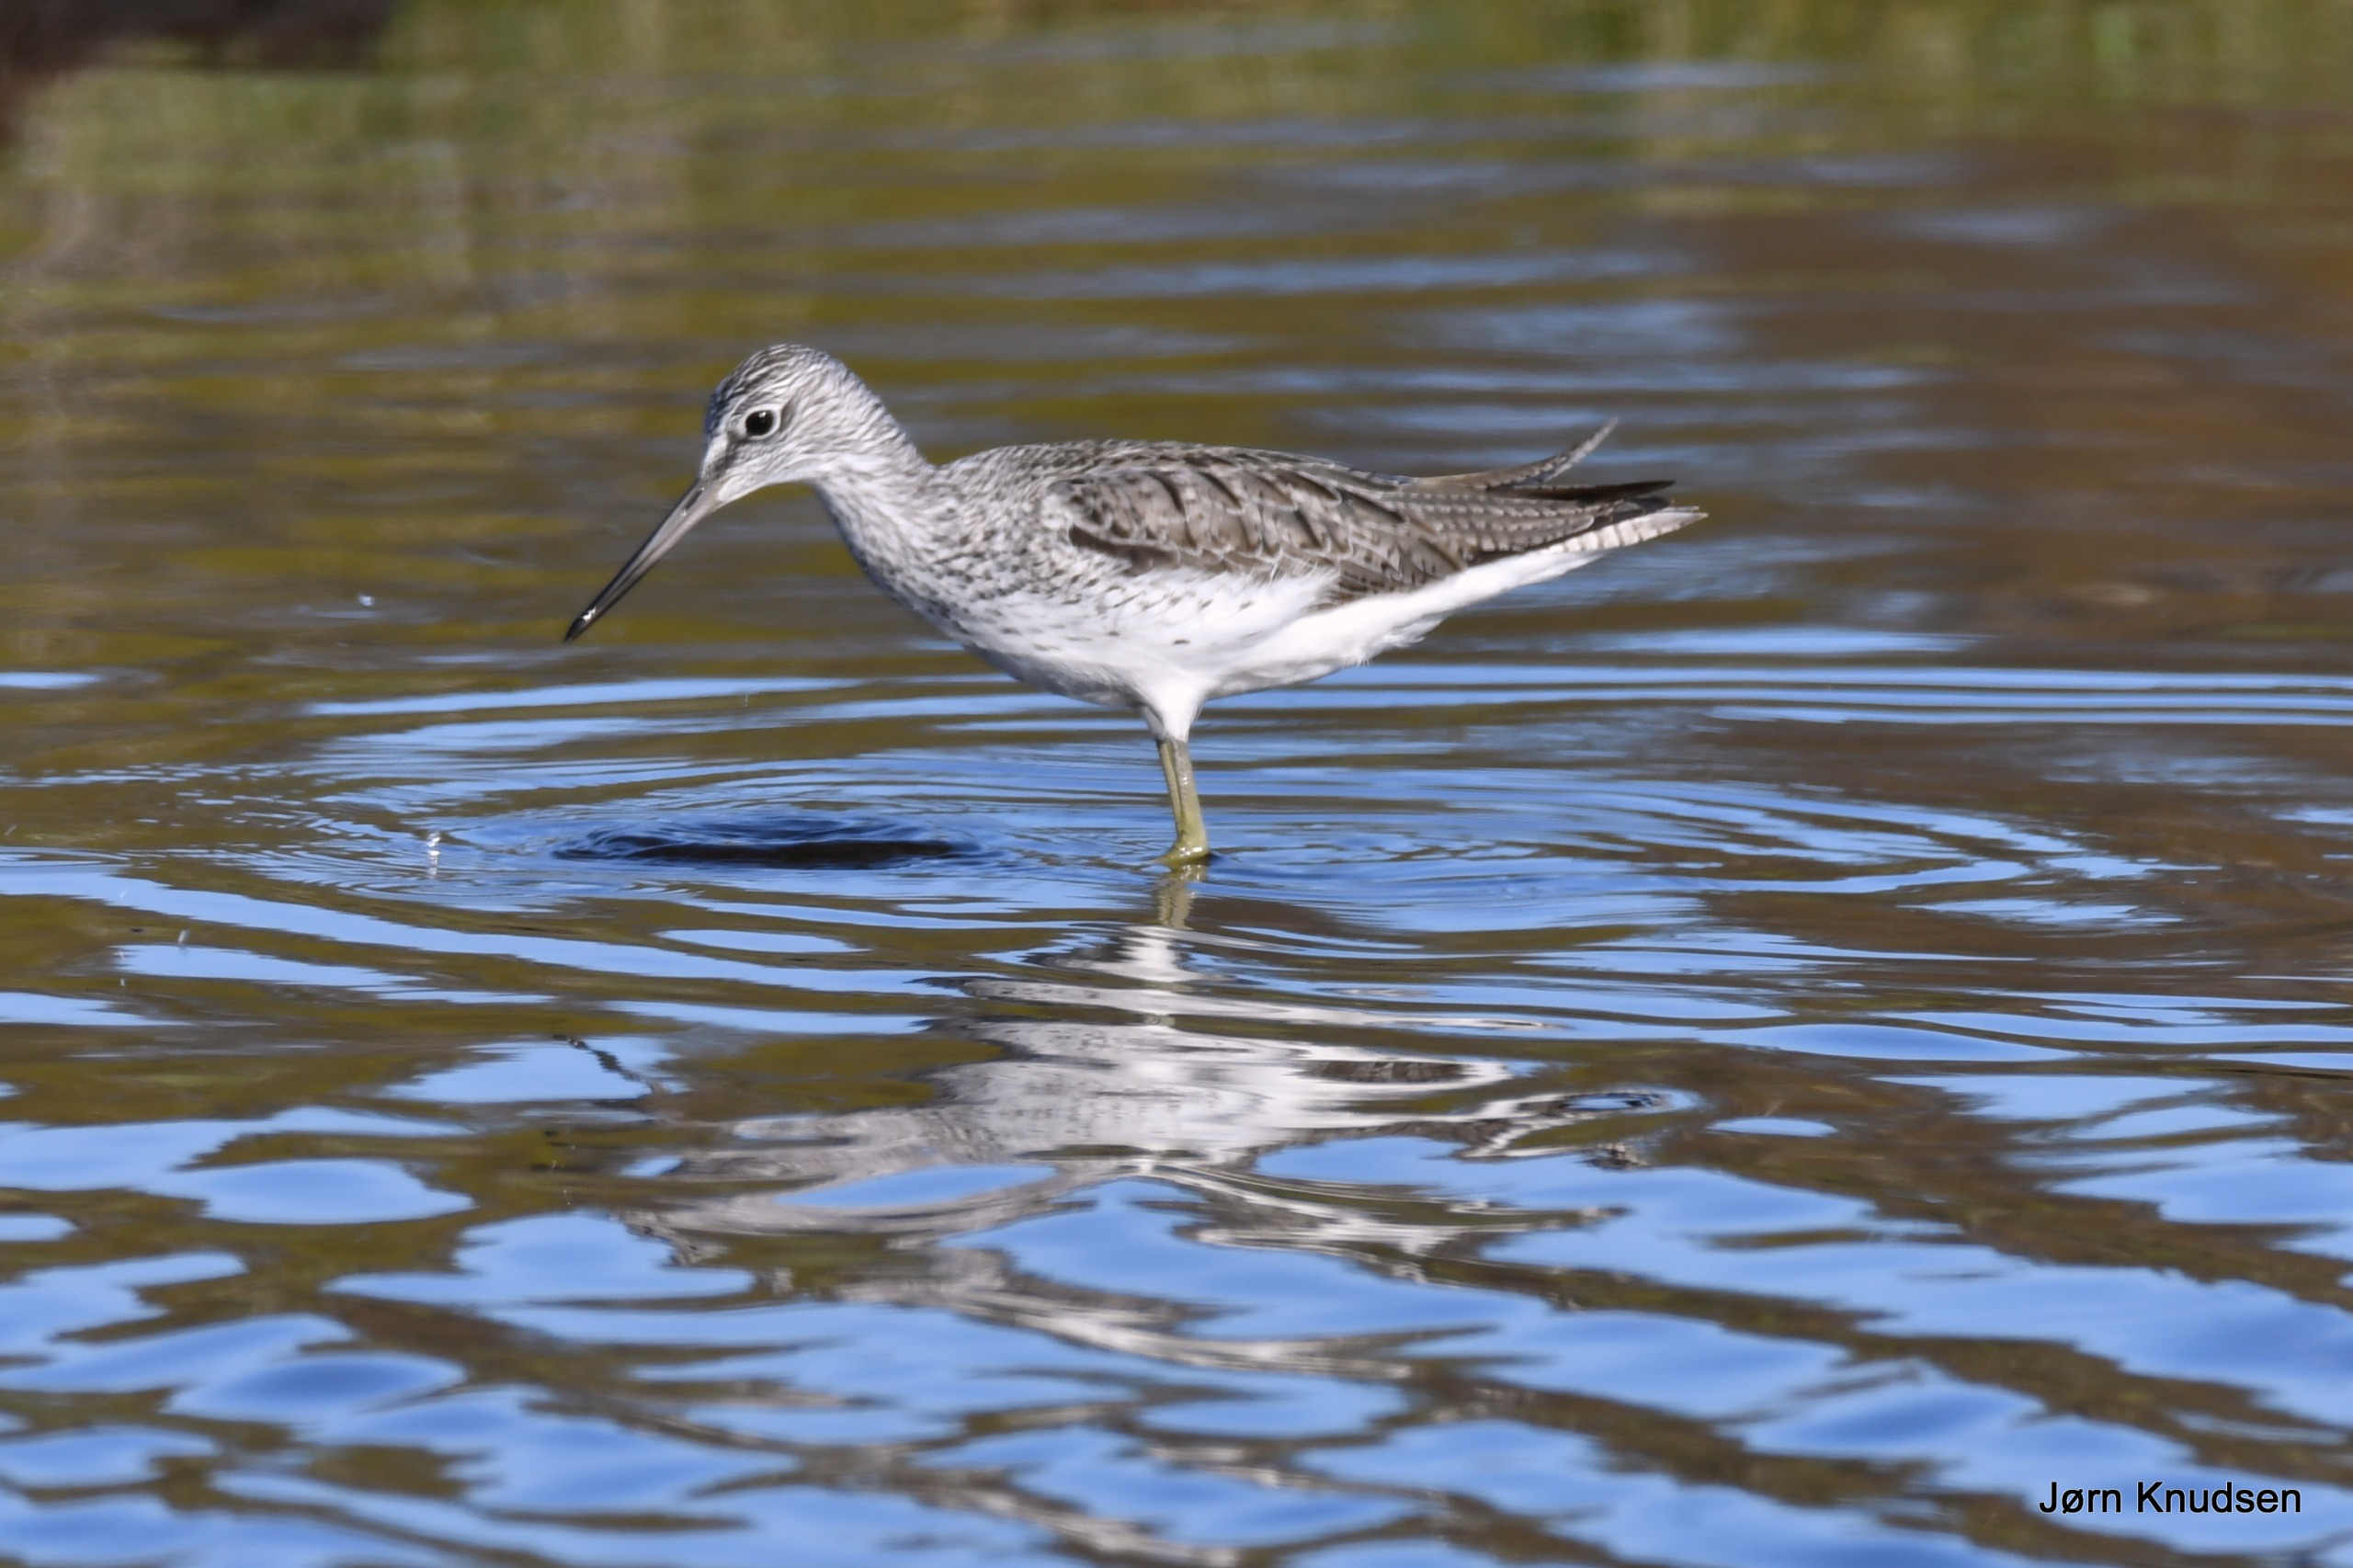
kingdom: Animalia
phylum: Chordata
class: Aves
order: Charadriiformes
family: Scolopacidae
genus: Tringa
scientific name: Tringa nebularia
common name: Hvidklire
